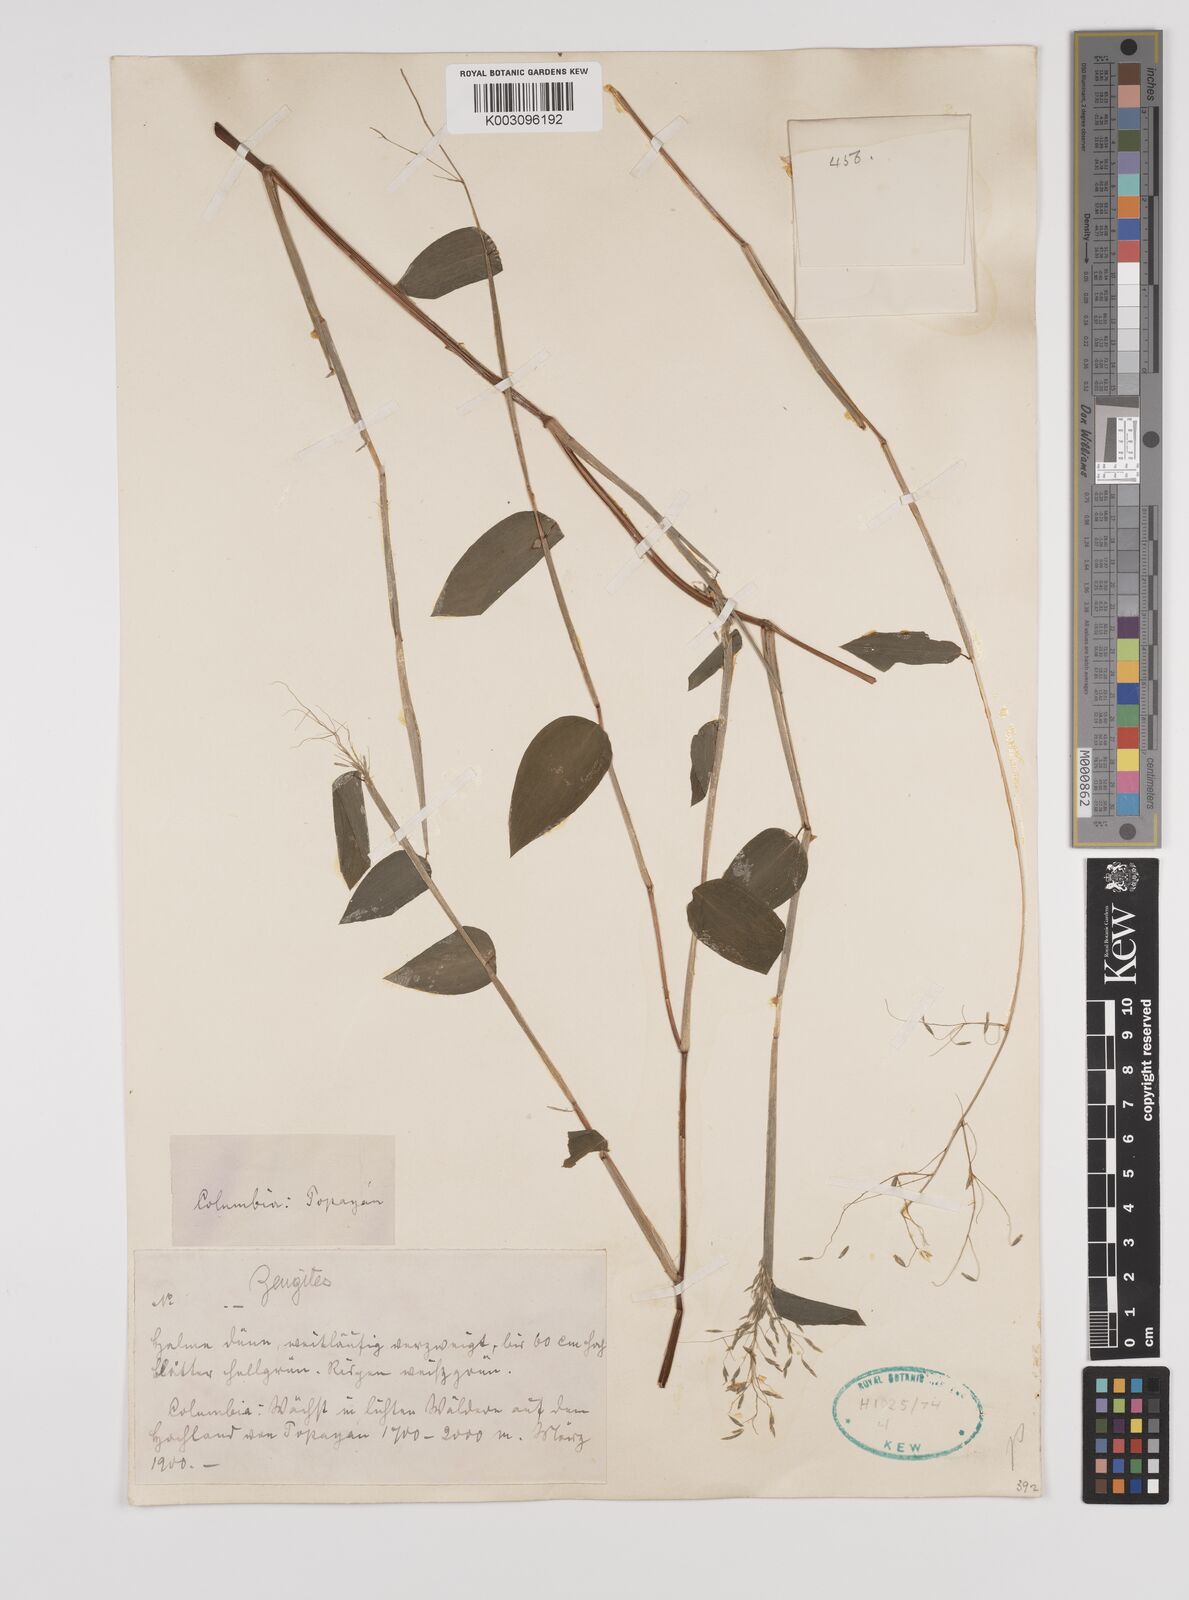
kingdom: Plantae
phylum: Tracheophyta
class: Liliopsida
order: Poales
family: Poaceae
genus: Zeugites
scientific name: Zeugites americanus
